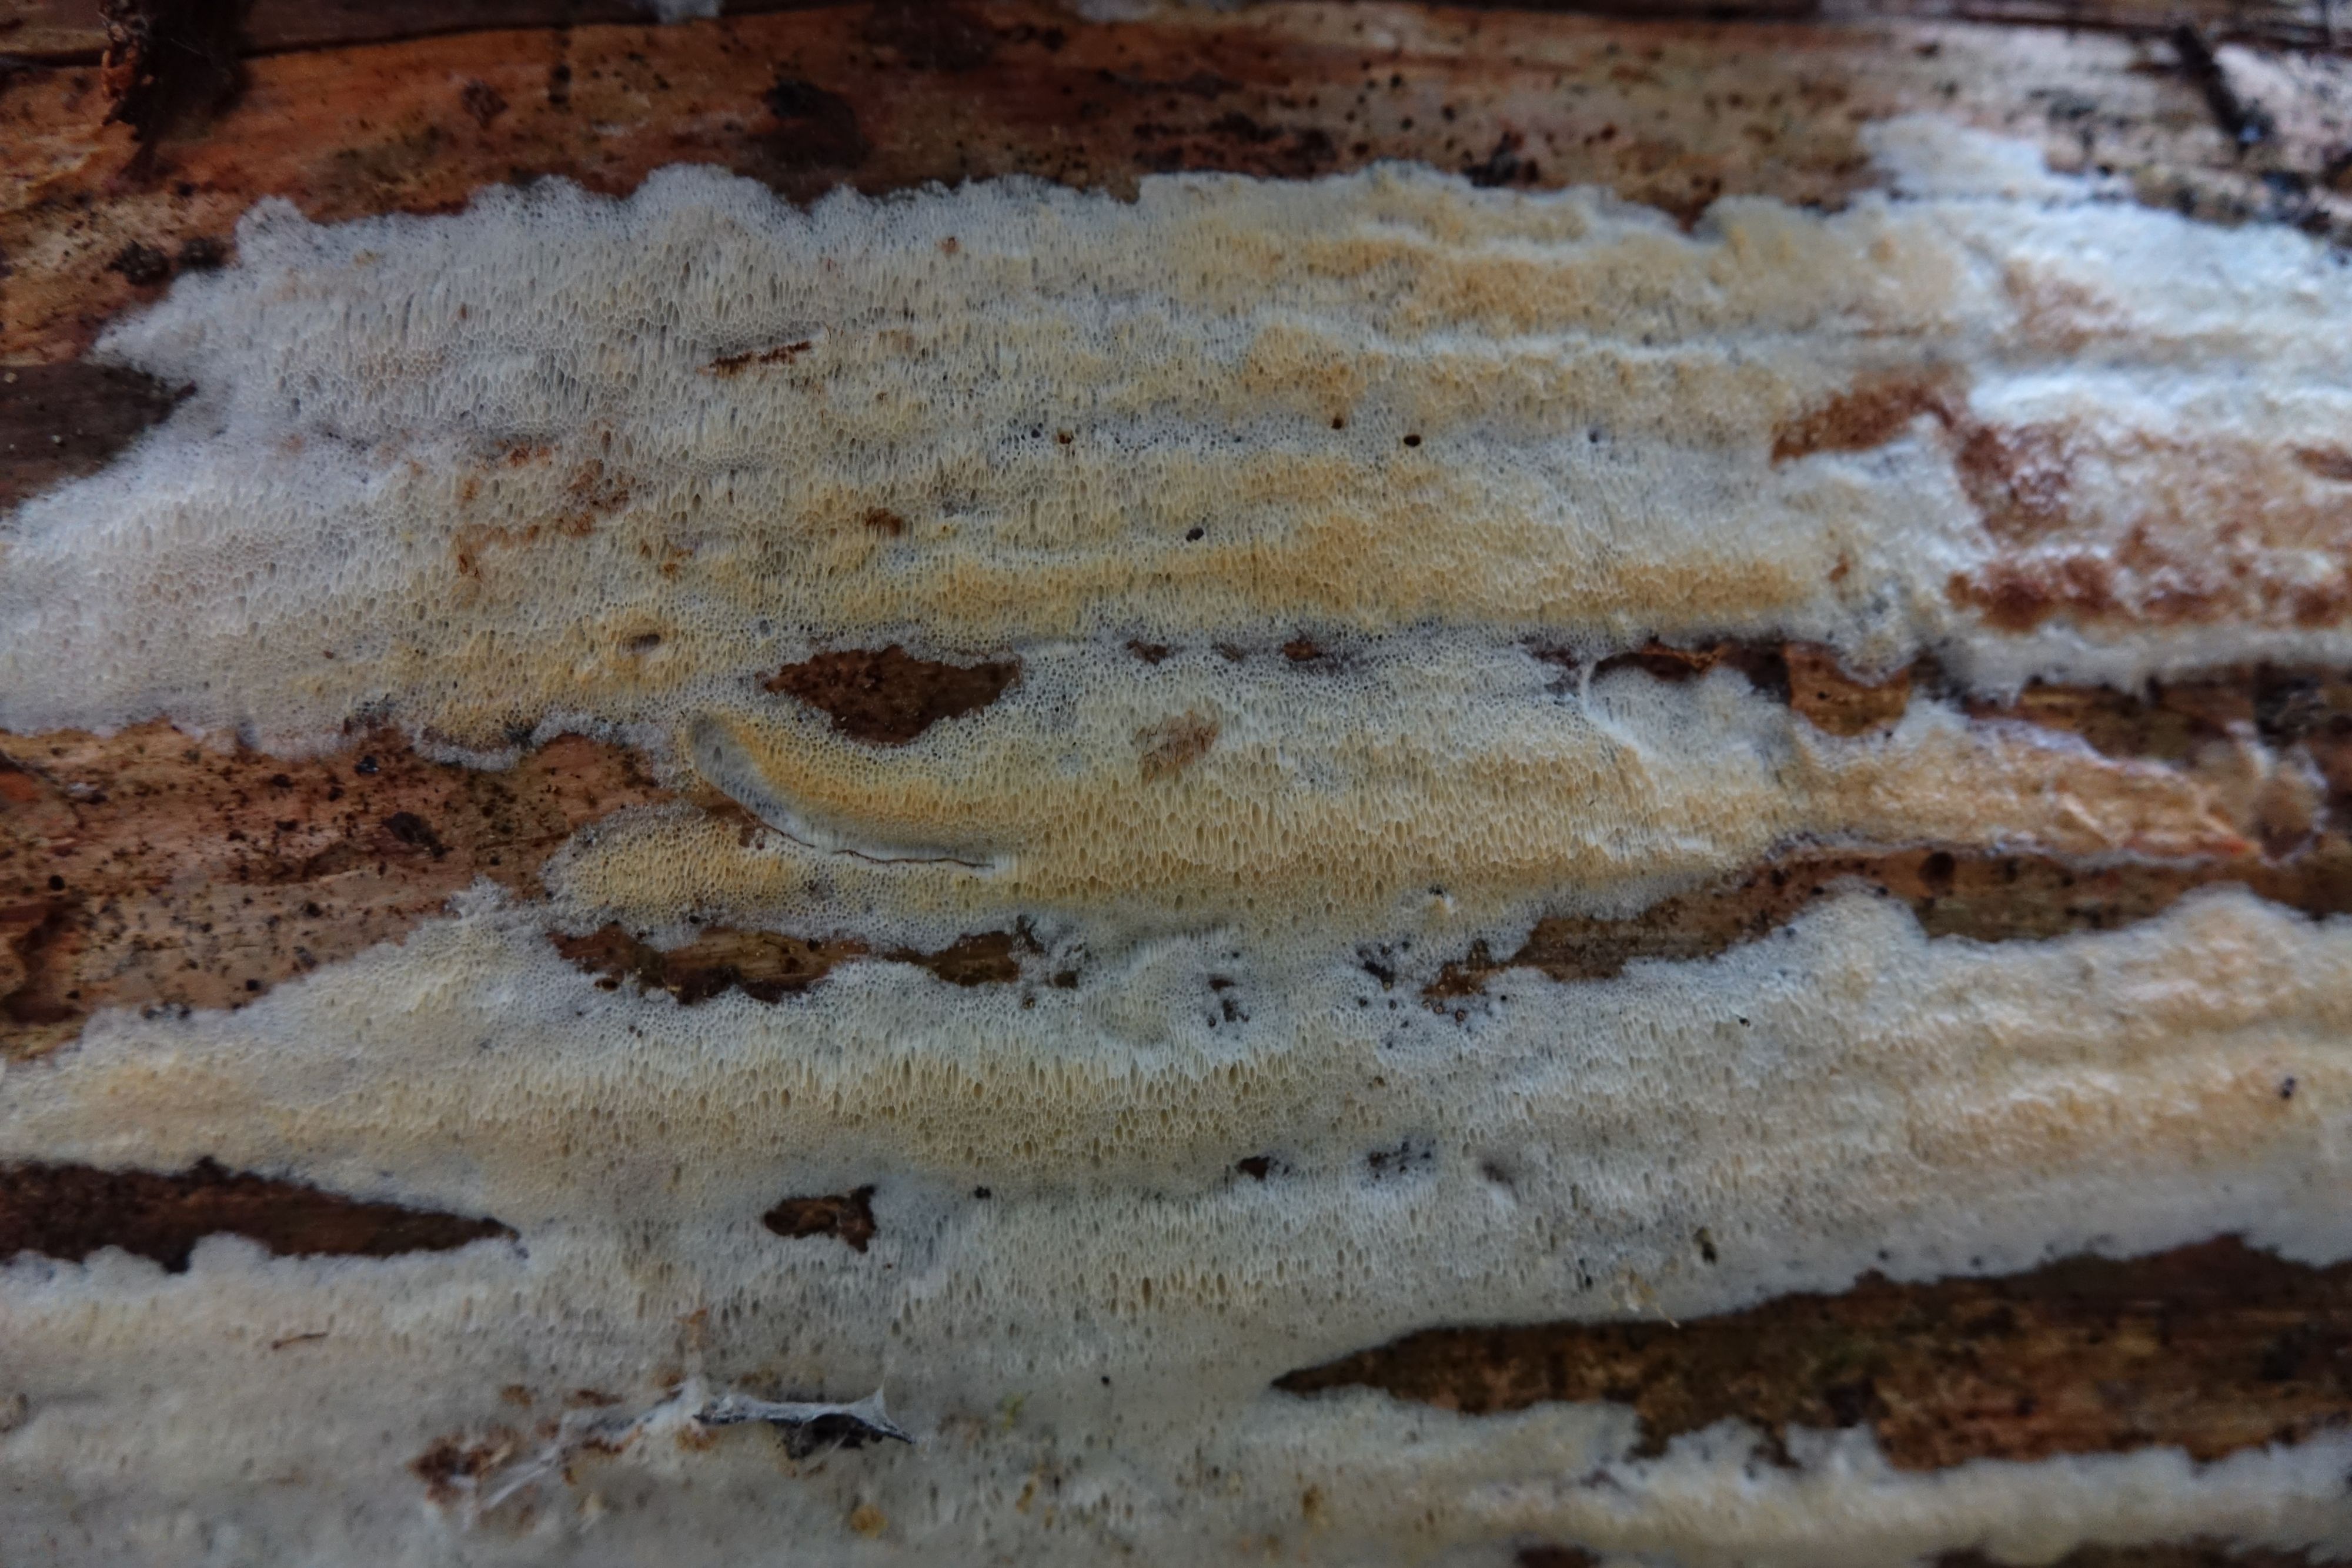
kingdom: Fungi
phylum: Basidiomycota
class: Agaricomycetes
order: Polyporales
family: Incrustoporiaceae
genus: Incrustoporia
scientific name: Incrustoporia papyracea
